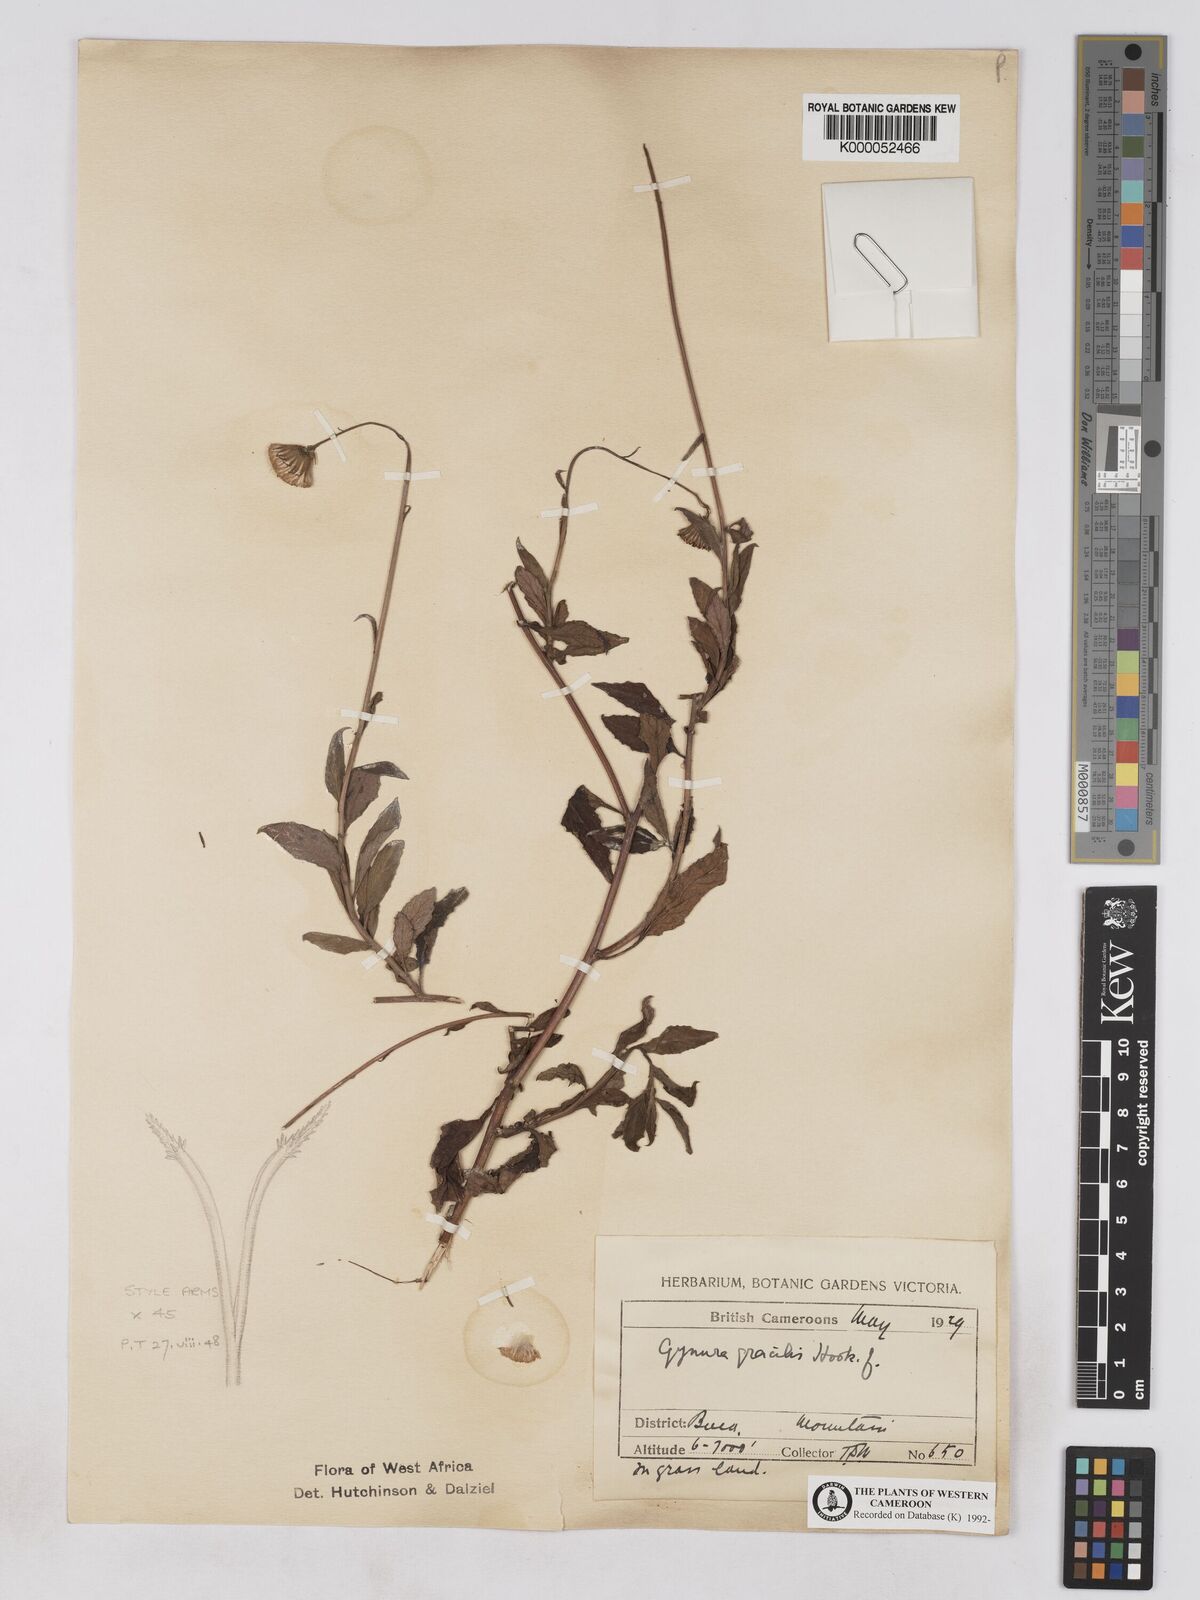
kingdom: Plantae
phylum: Tracheophyta
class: Magnoliopsida
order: Asterales
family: Asteraceae
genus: Crassocephalum
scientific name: Crassocephalum
